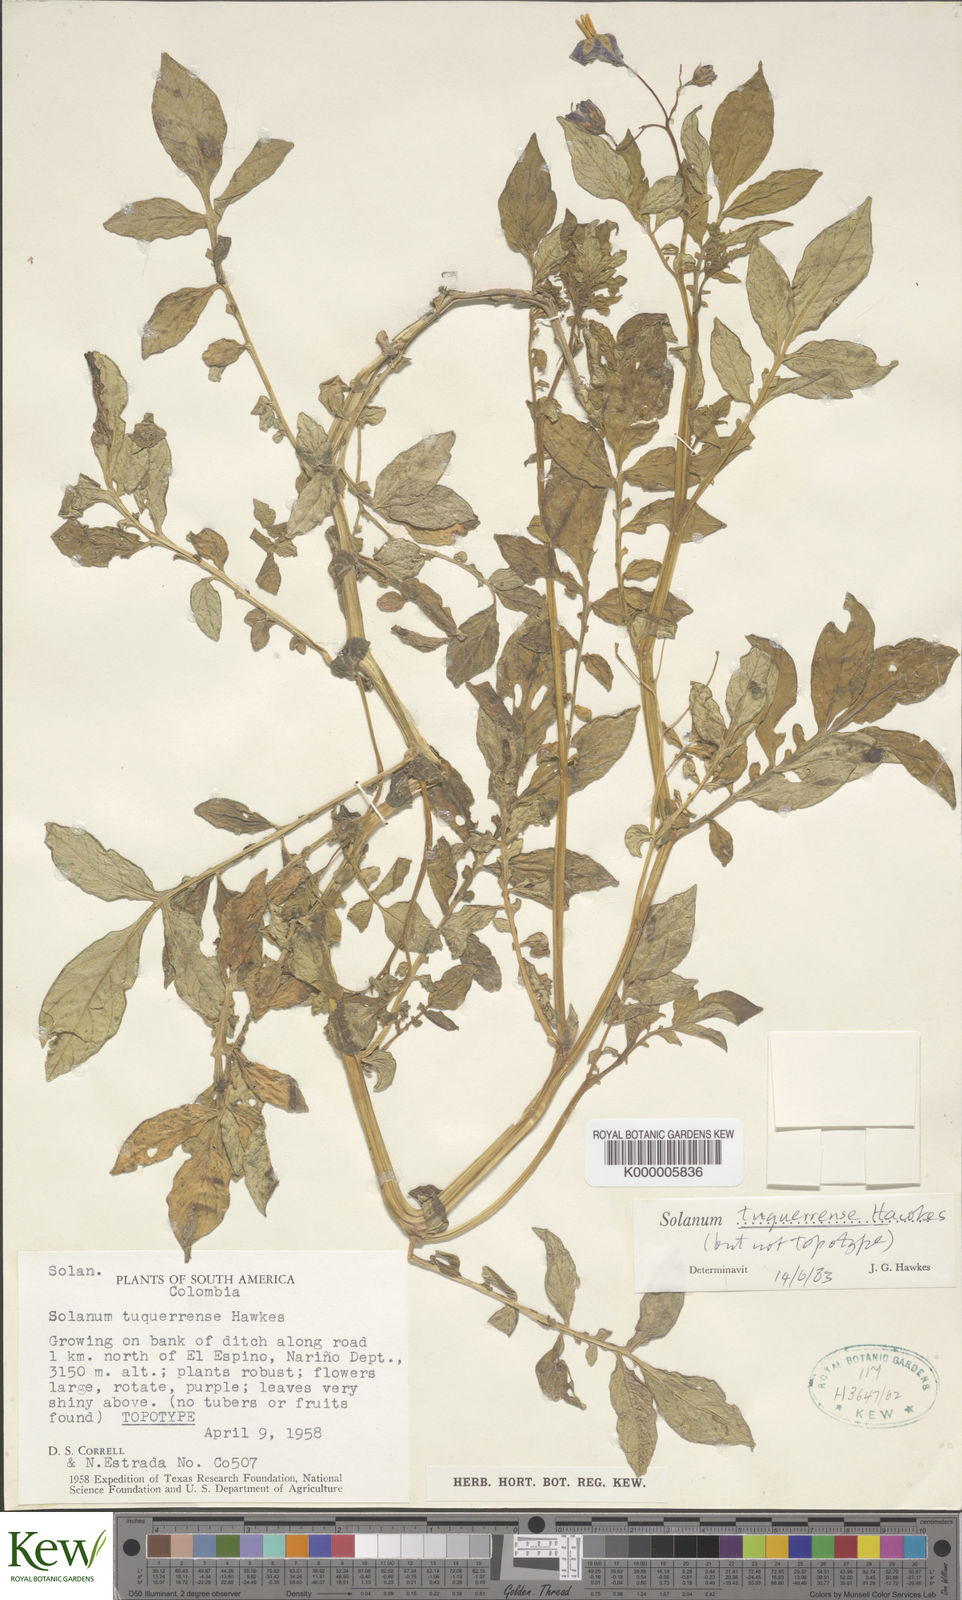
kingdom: Plantae
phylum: Tracheophyta
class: Magnoliopsida
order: Solanales
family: Solanaceae
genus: Solanum
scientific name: Solanum andreanum
